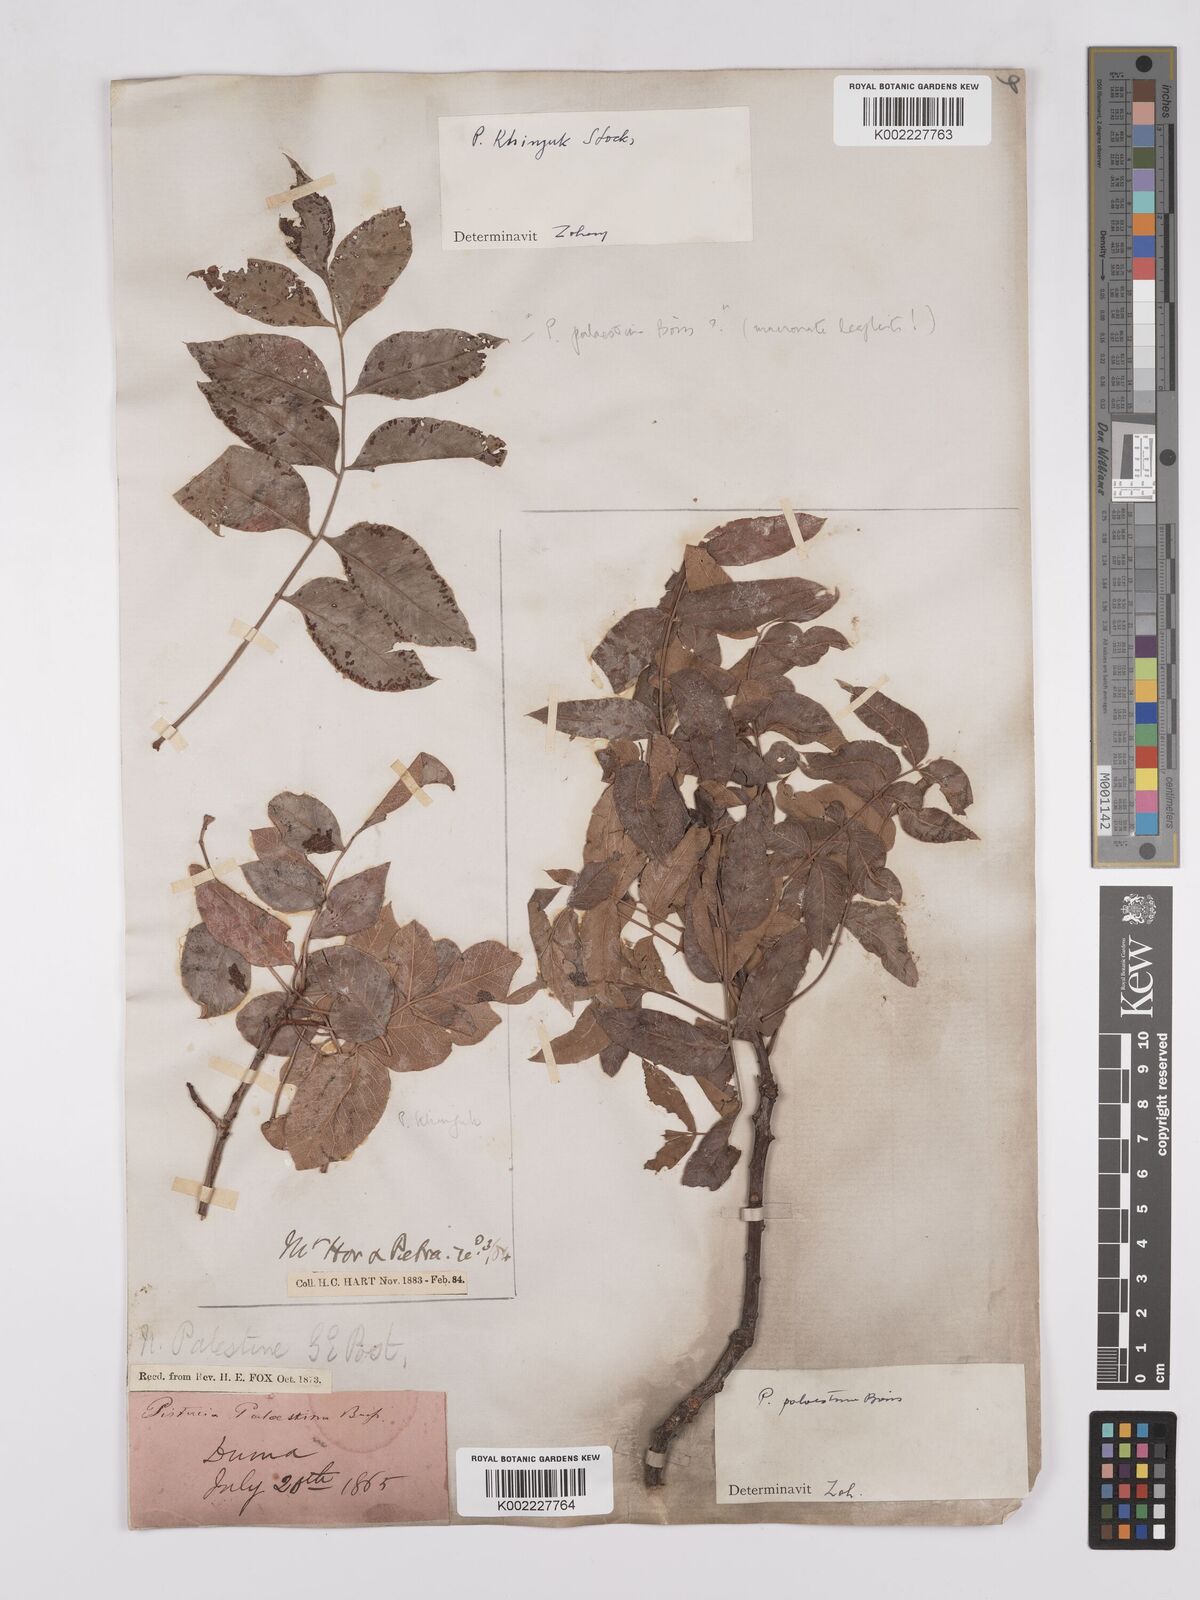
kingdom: Plantae
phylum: Tracheophyta
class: Magnoliopsida
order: Sapindales
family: Anacardiaceae
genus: Pistacia
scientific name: Pistacia khinjuk
